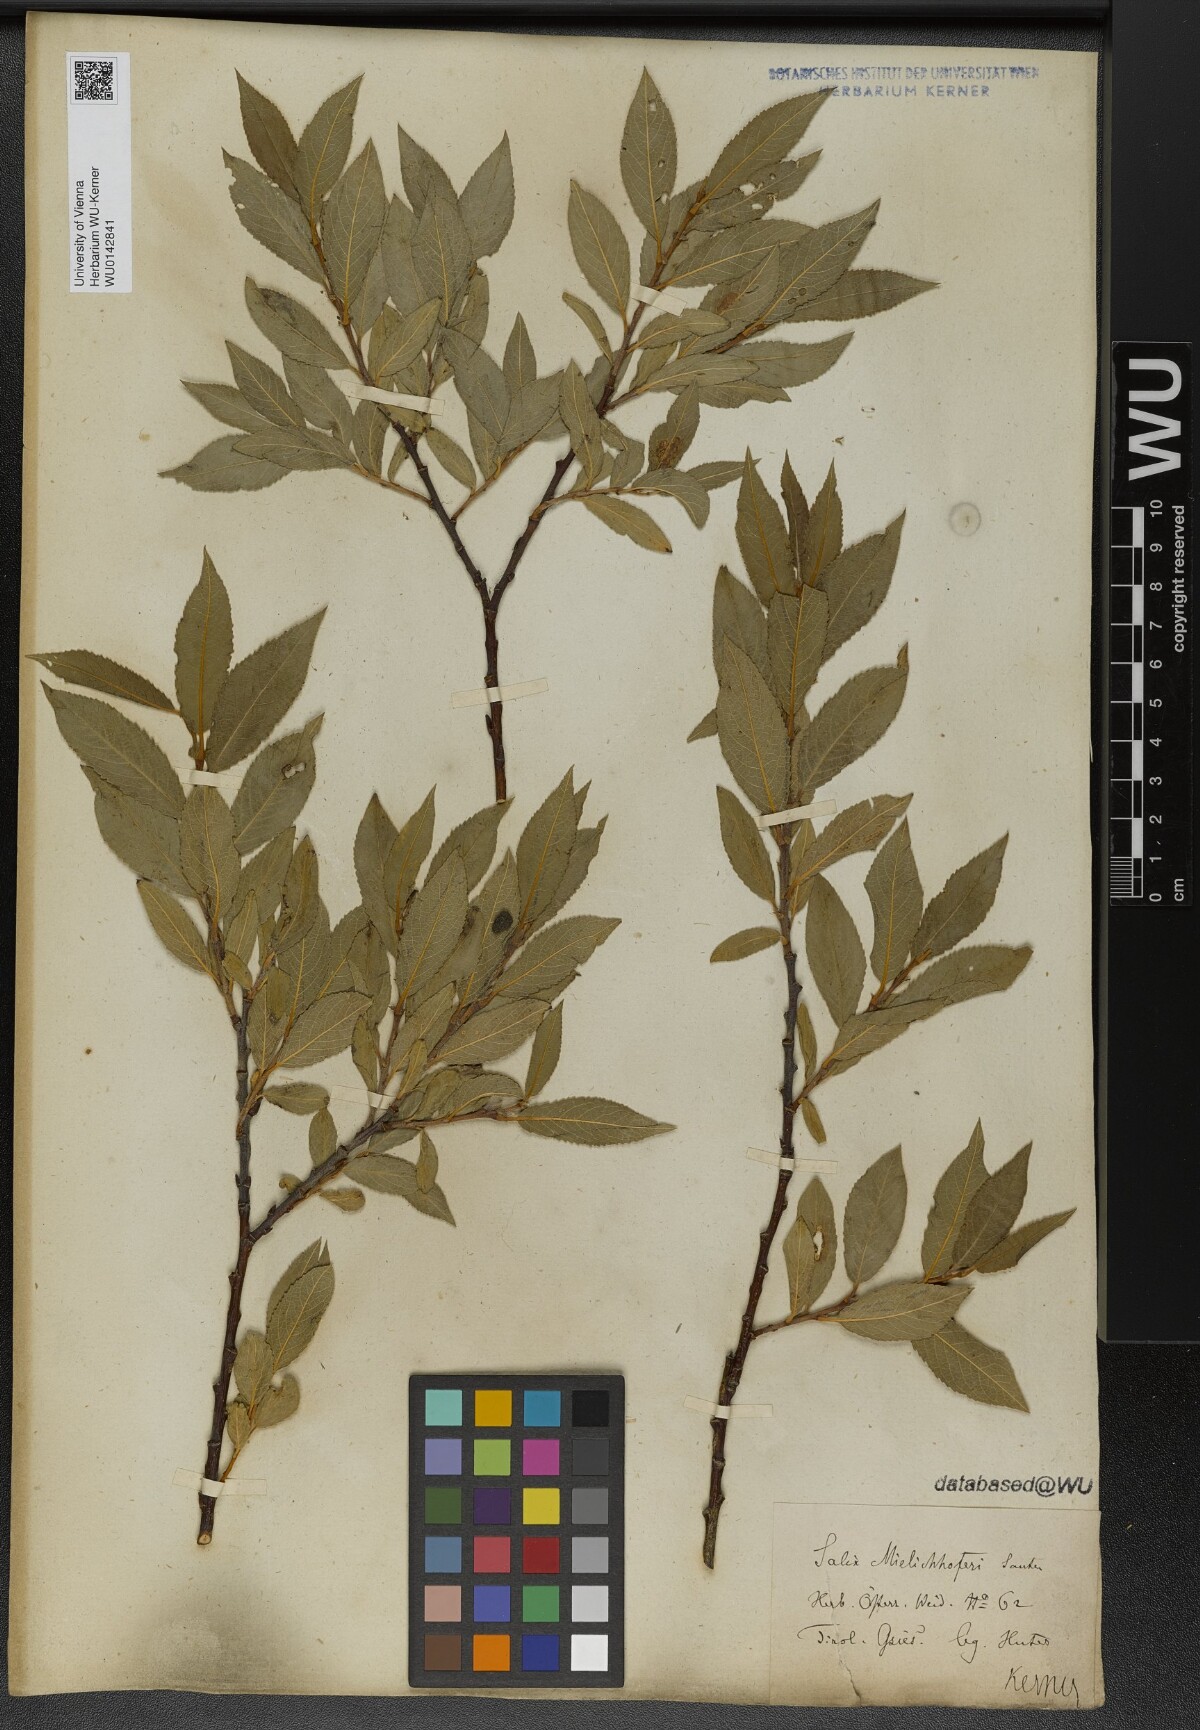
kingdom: Plantae
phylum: Tracheophyta
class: Magnoliopsida
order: Malpighiales
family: Salicaceae
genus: Salix
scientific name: Salix mielichhoferi
